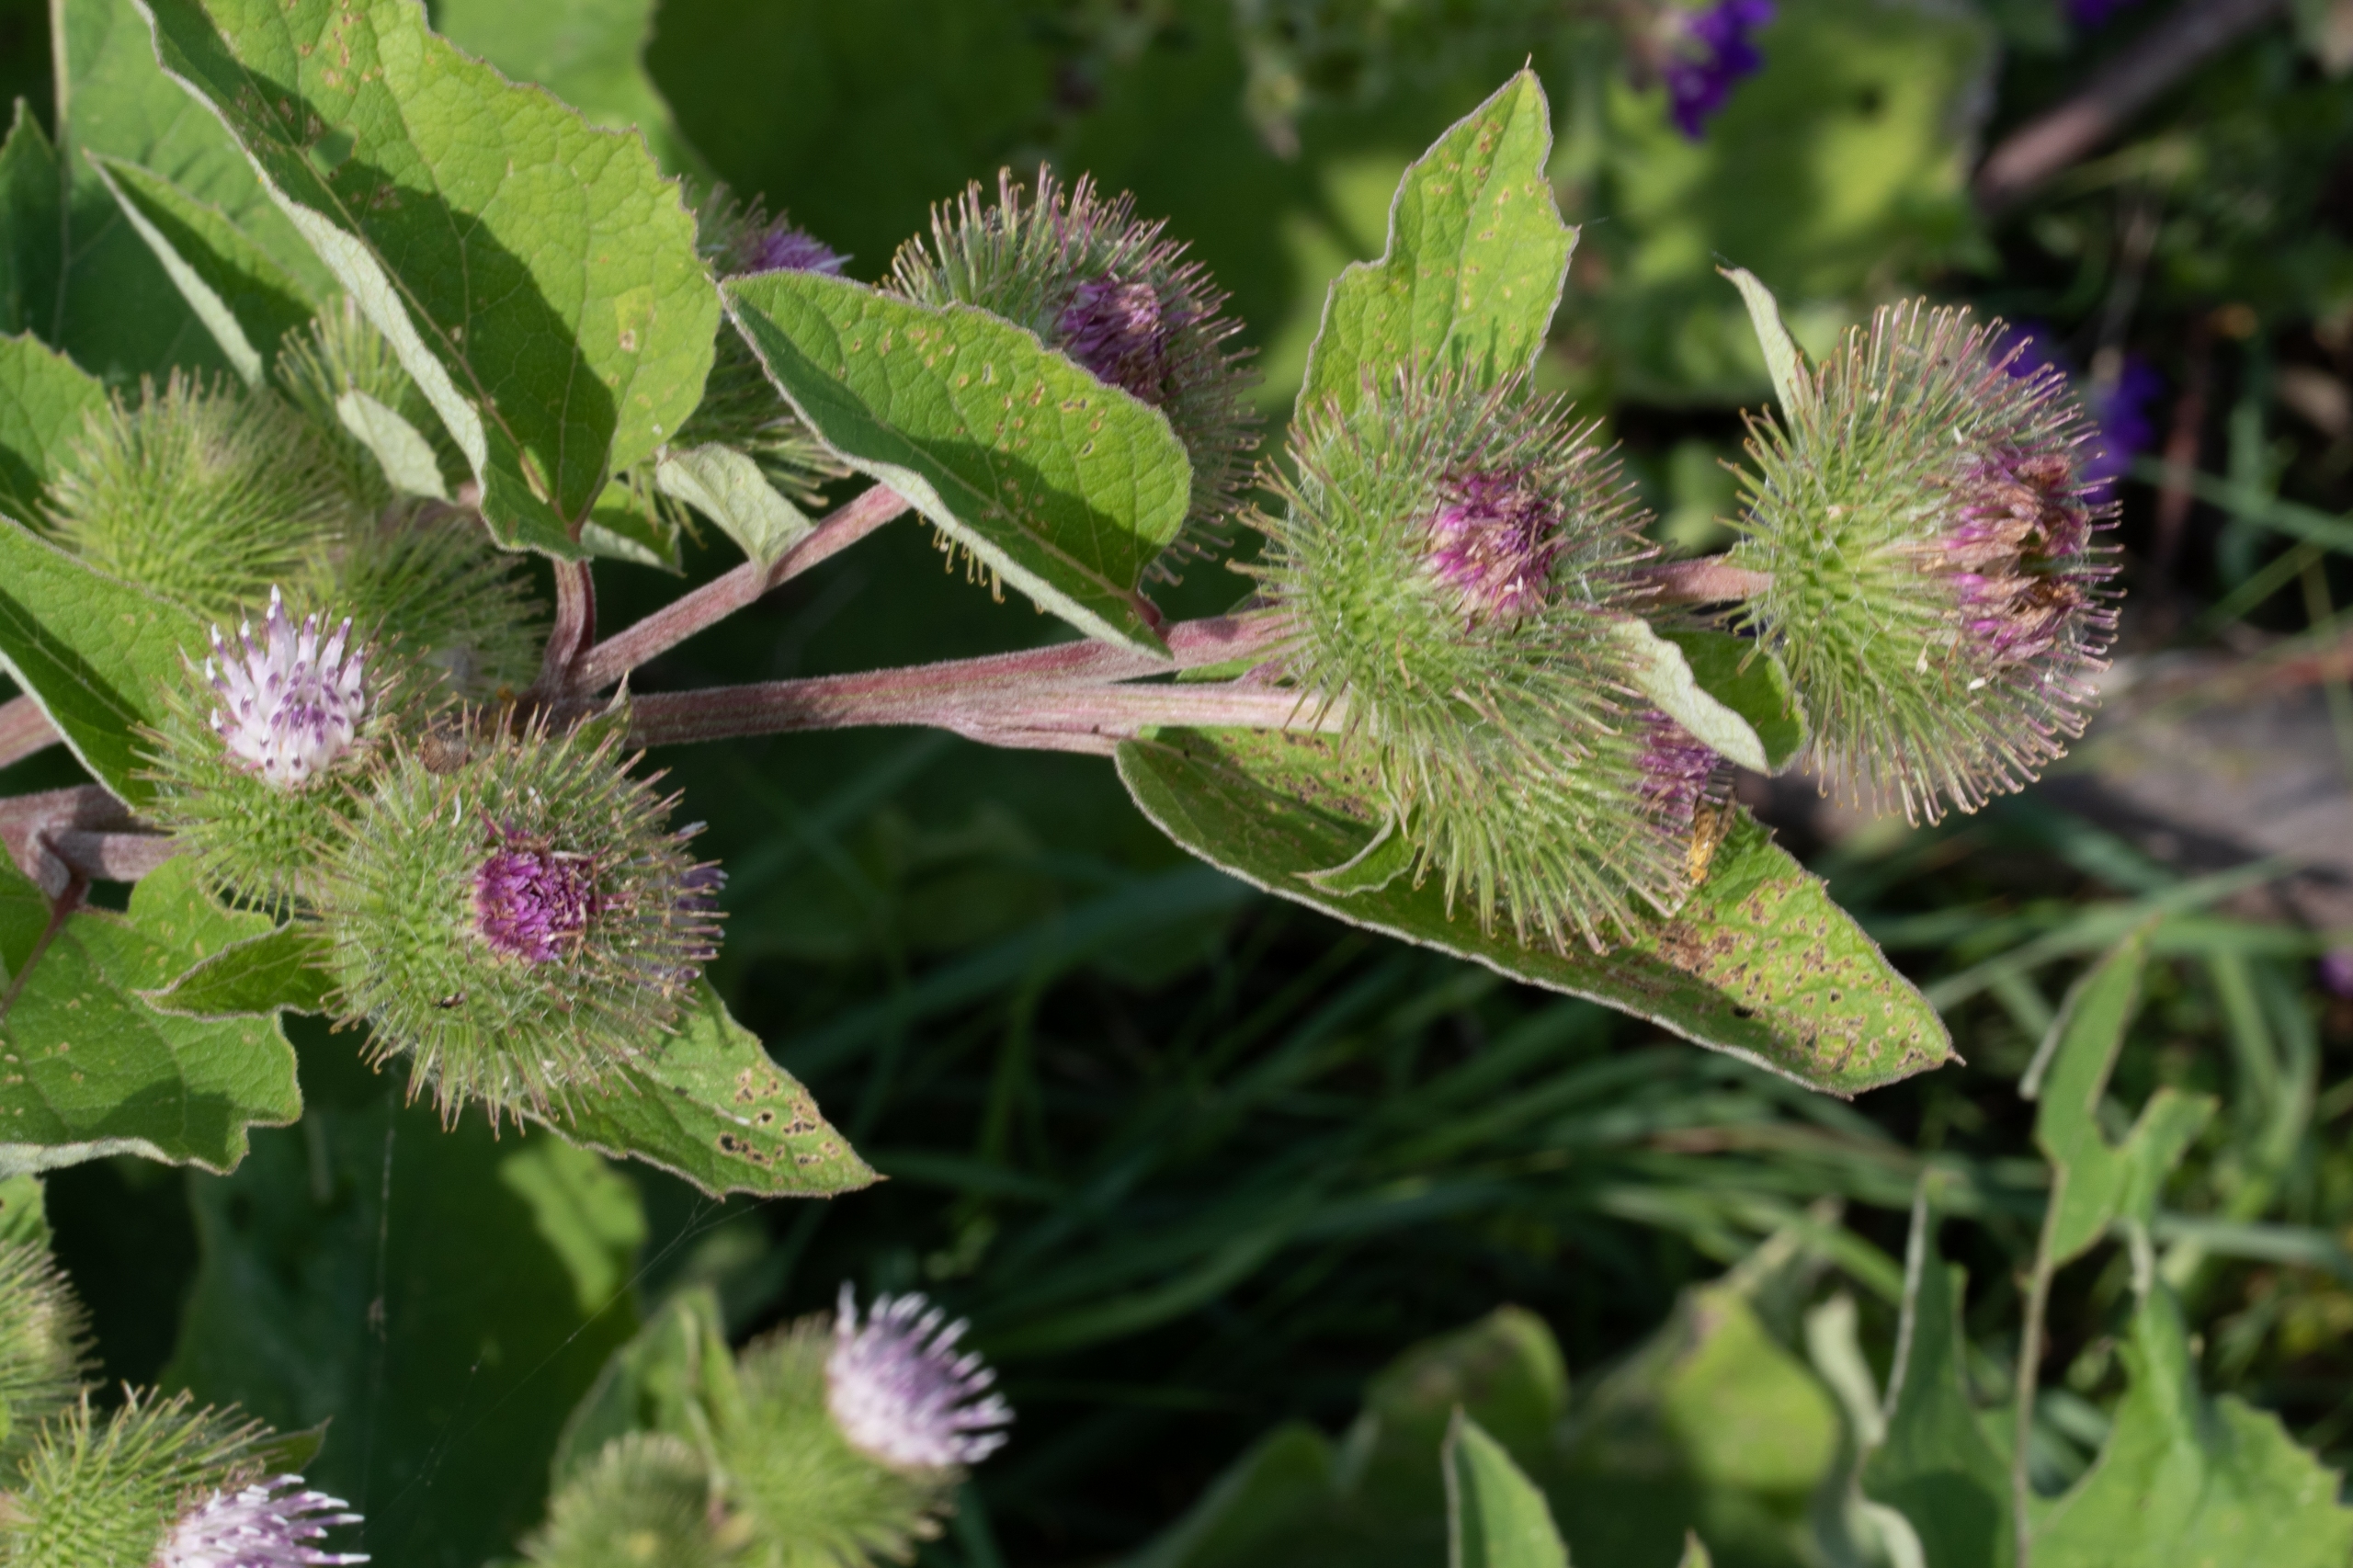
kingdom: Plantae
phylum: Tracheophyta
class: Magnoliopsida
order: Asterales
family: Asteraceae
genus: Arctium
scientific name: Arctium minus
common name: Liden burre
